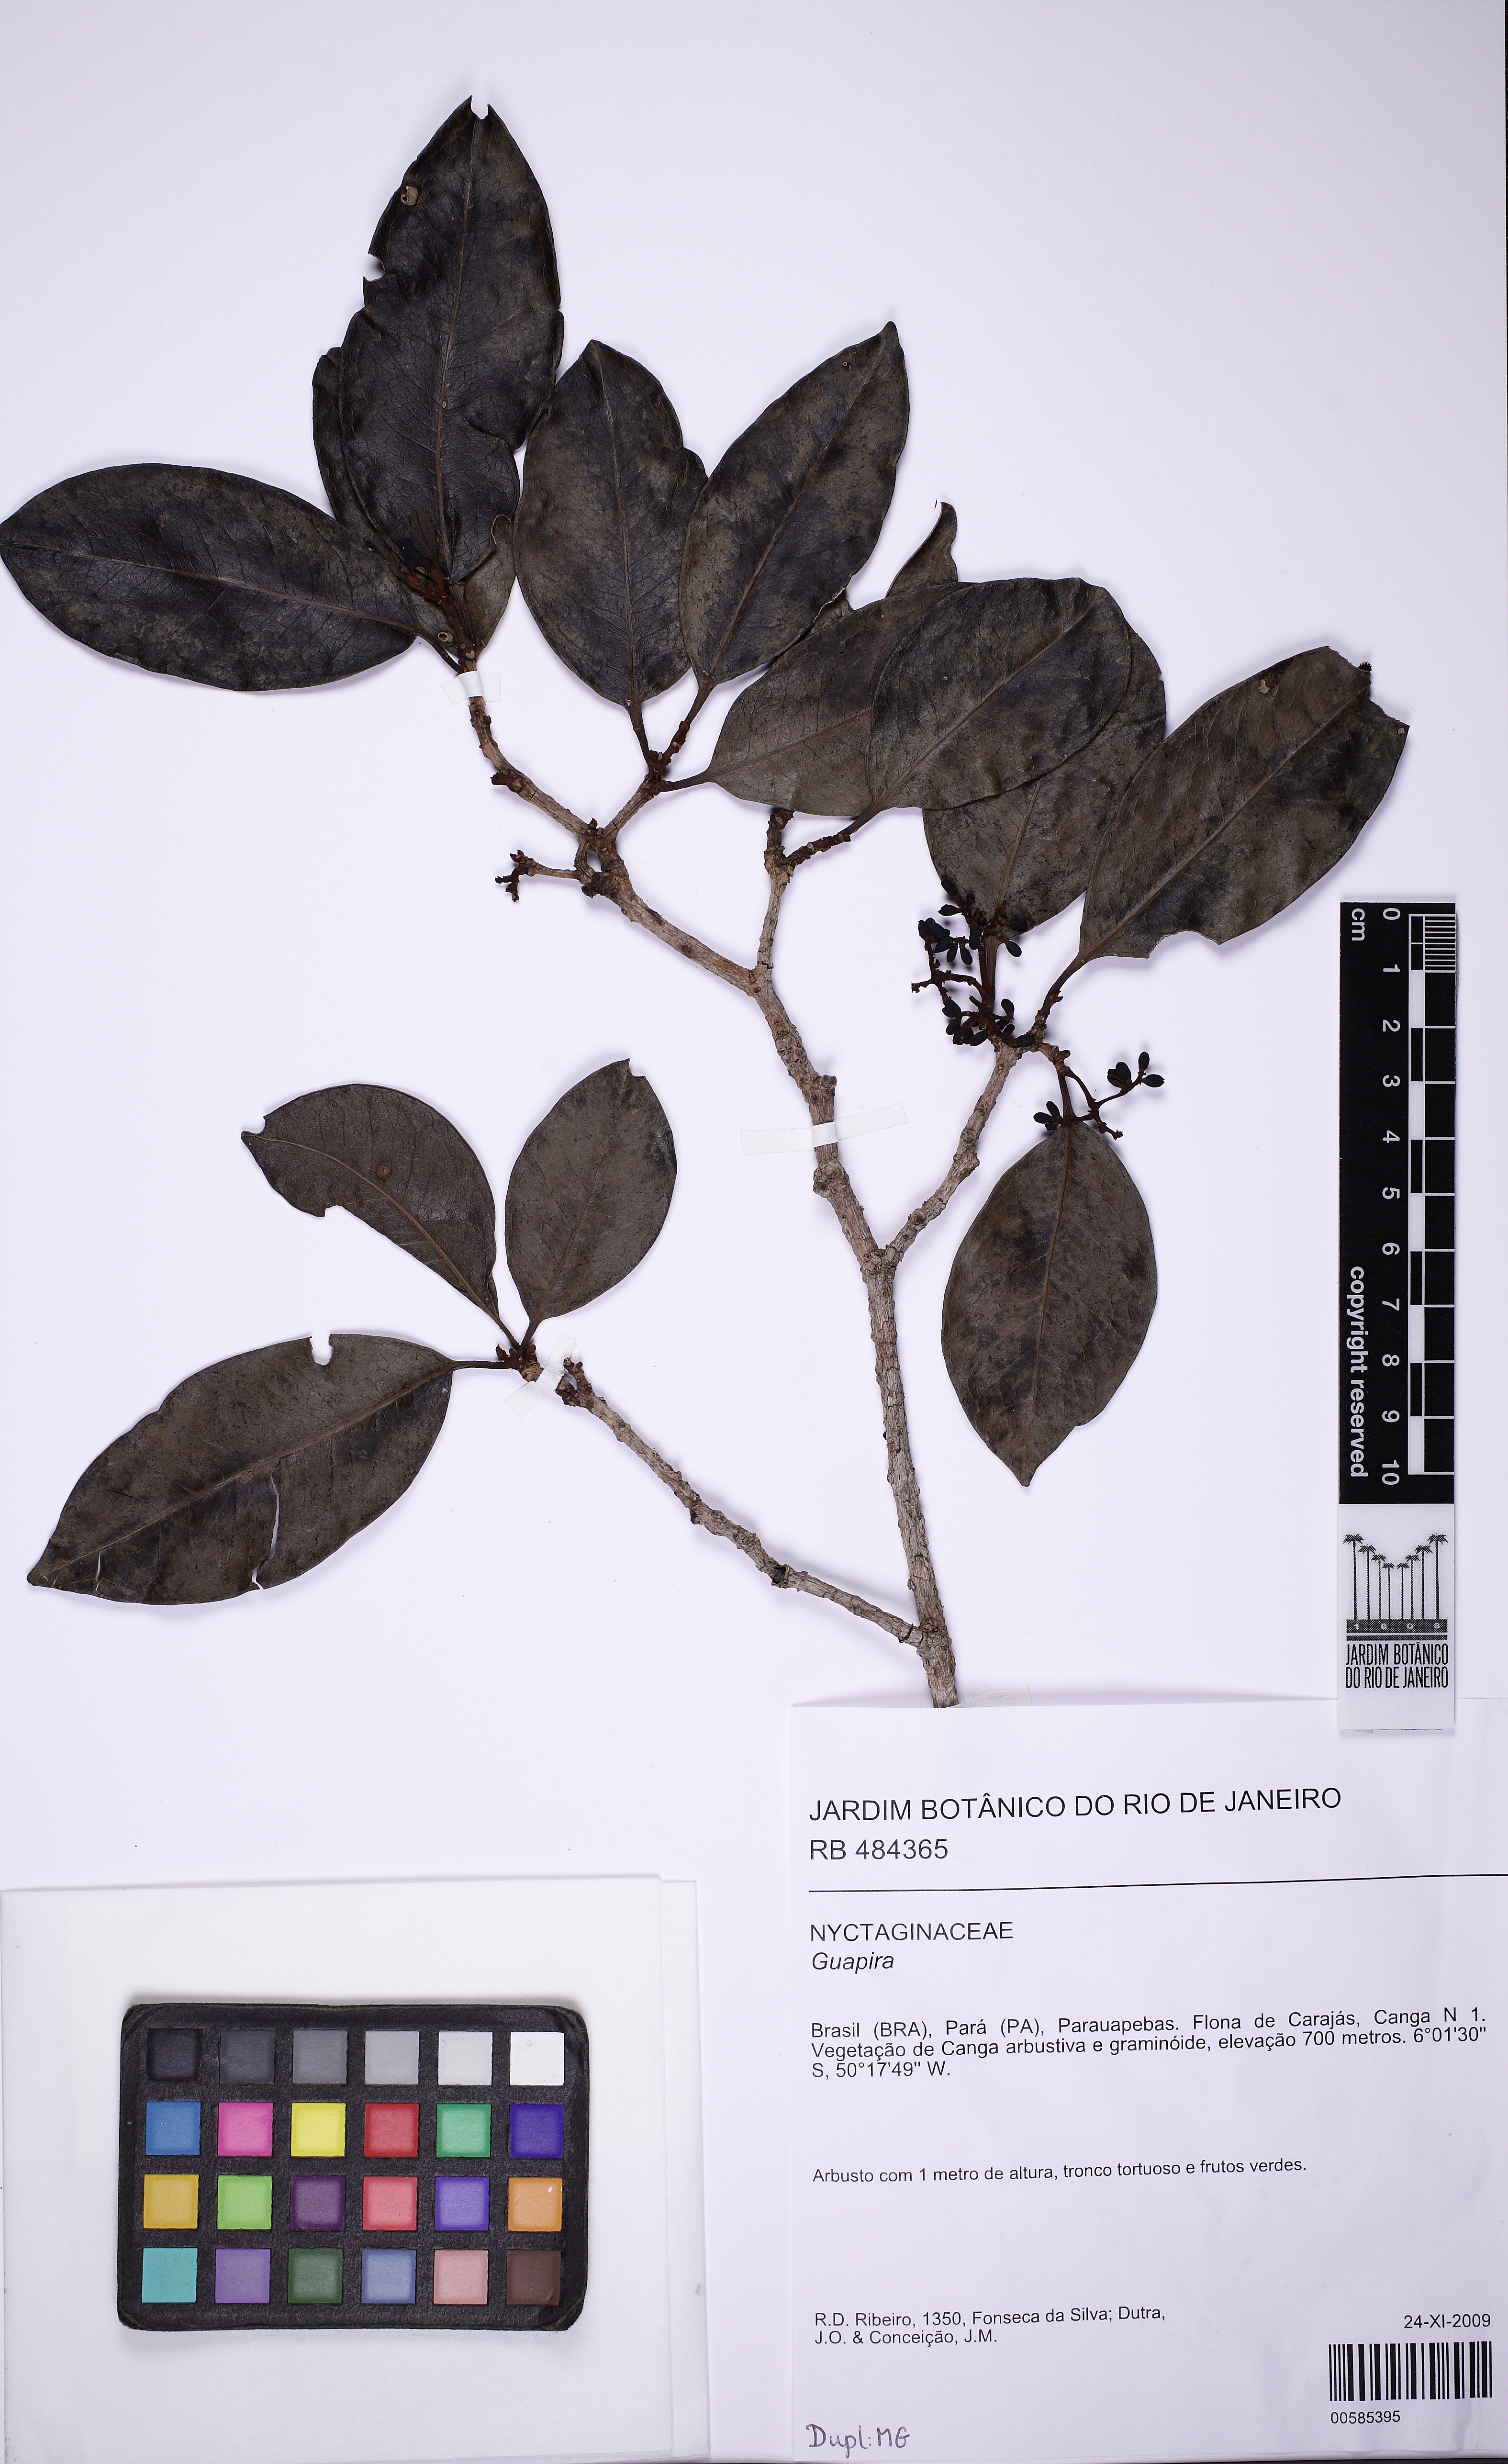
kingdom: Plantae
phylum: Tracheophyta
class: Magnoliopsida
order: Caryophyllales
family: Nyctaginaceae
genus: Neea
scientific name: Neea macrophylla
